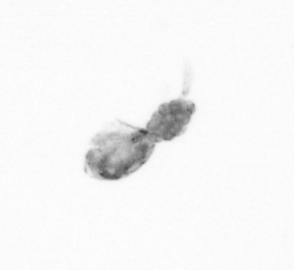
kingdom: Animalia
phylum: Arthropoda
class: Copepoda
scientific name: Copepoda
